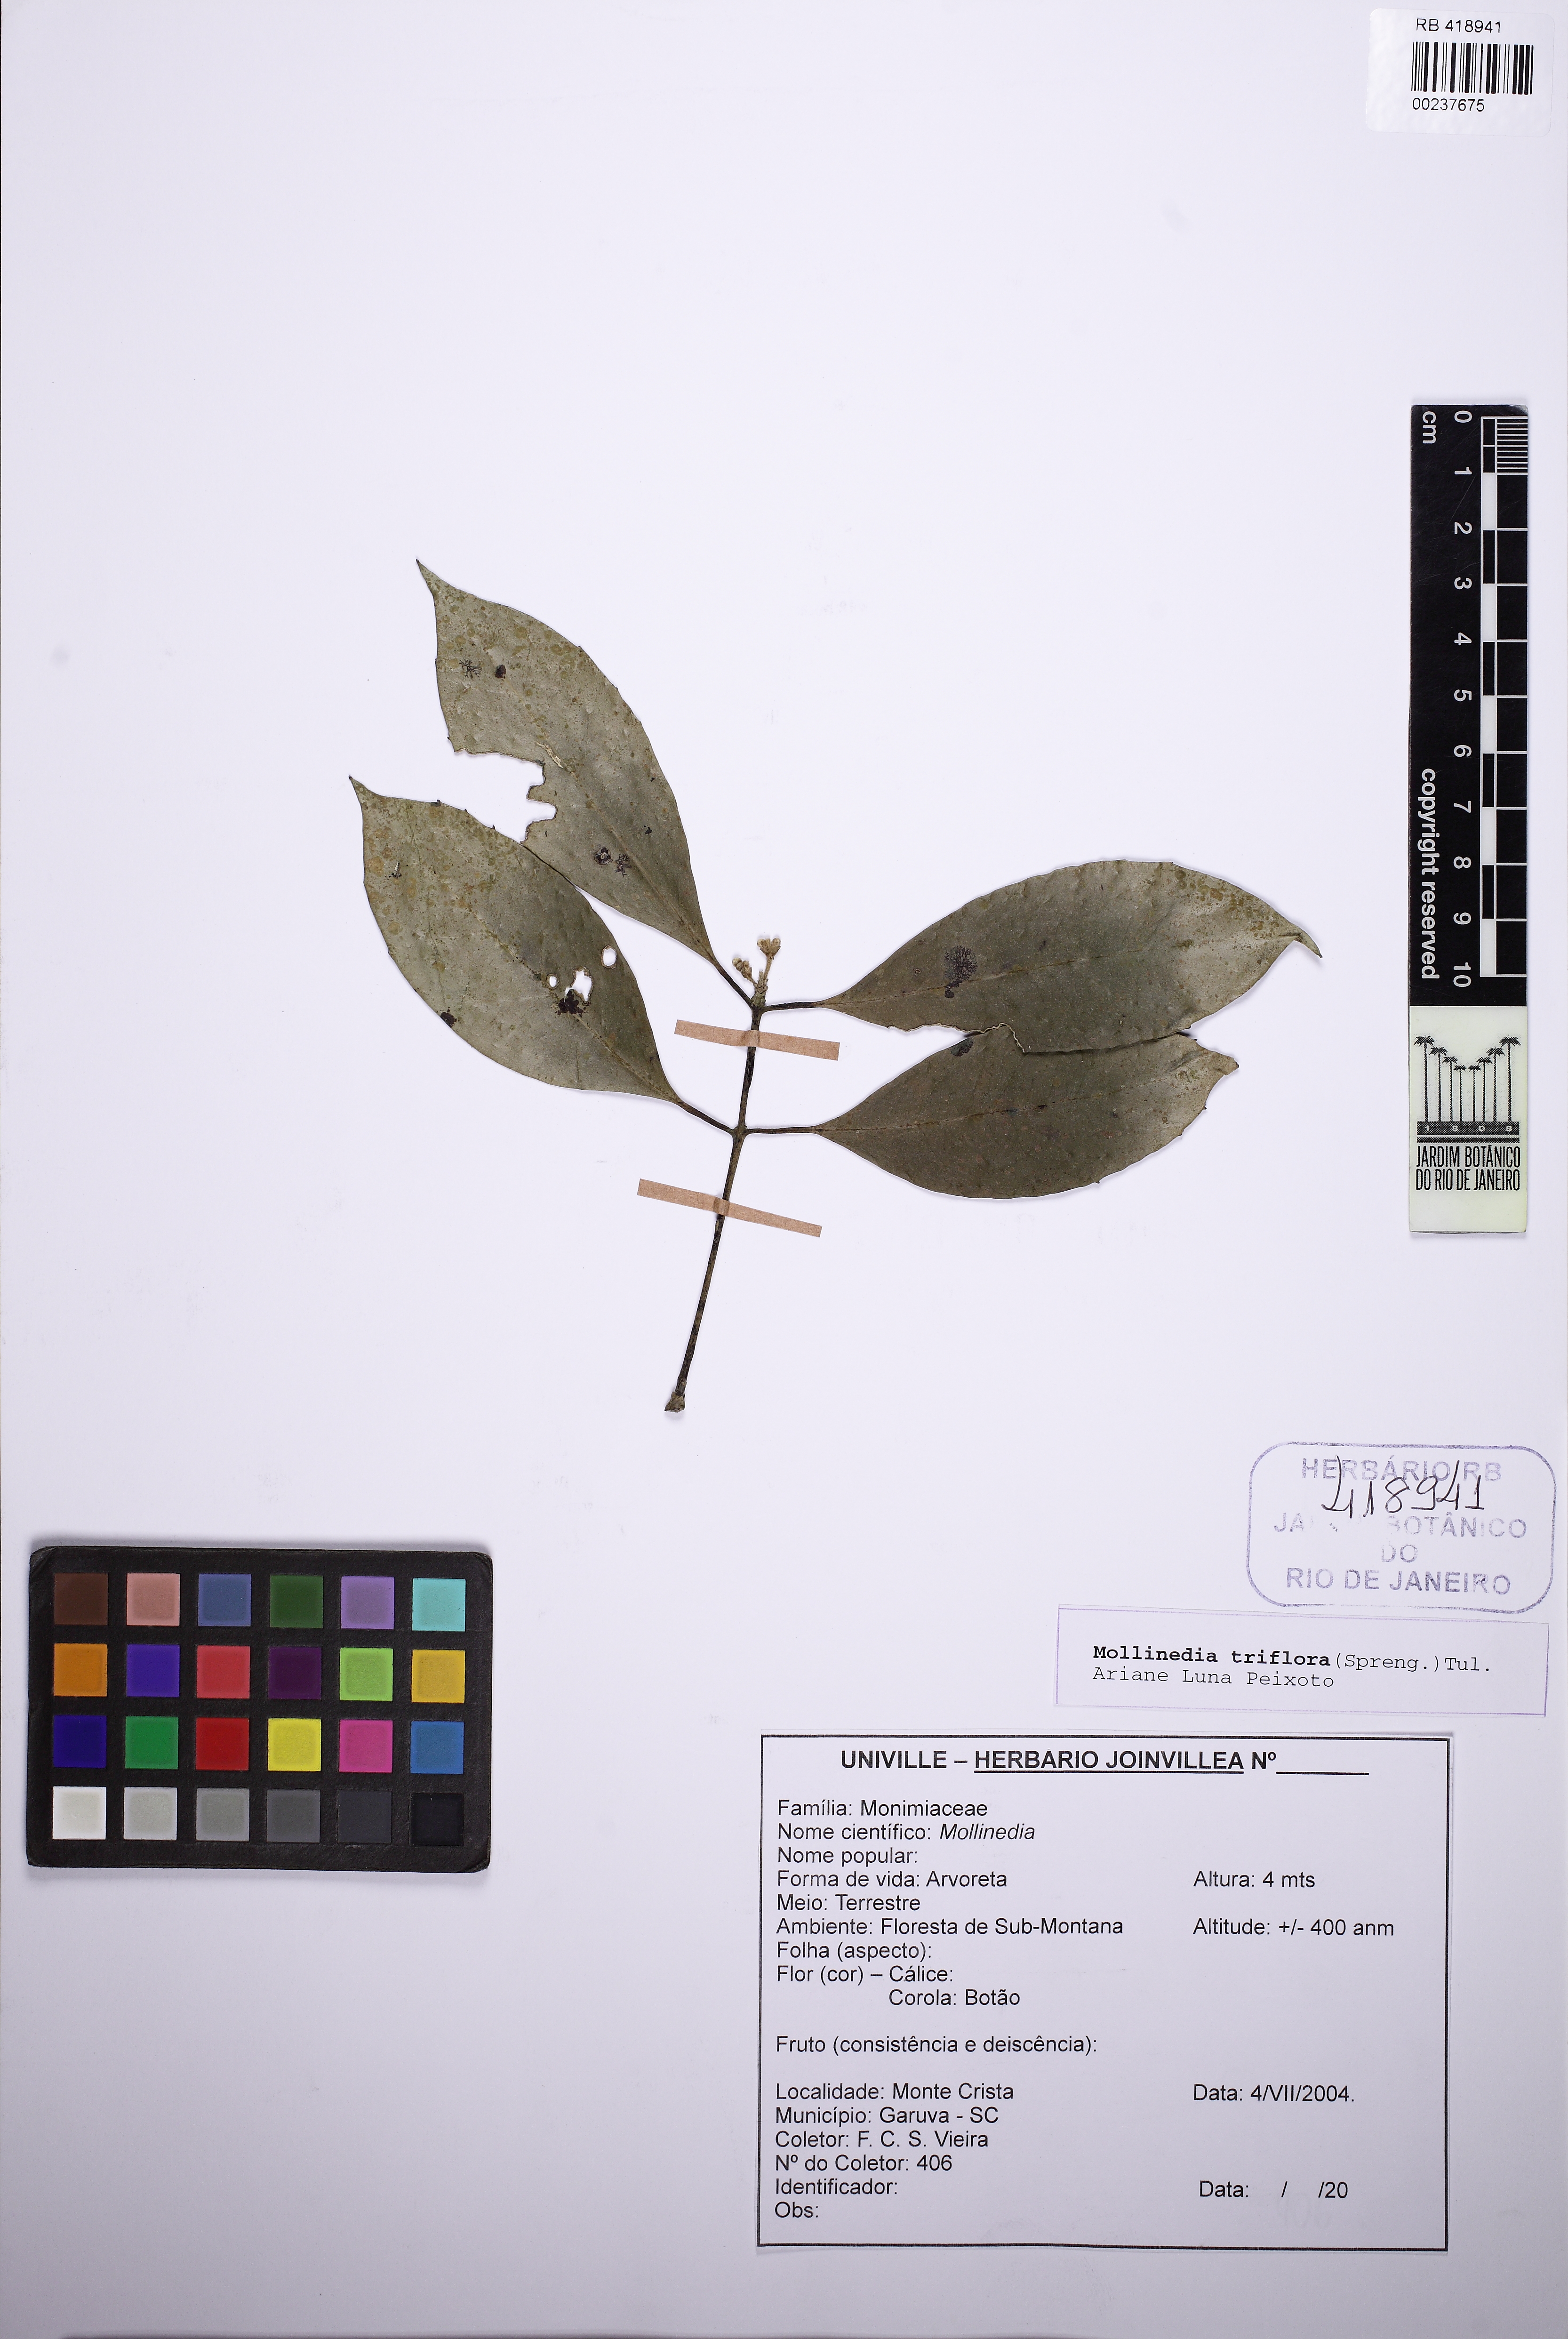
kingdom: Plantae
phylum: Tracheophyta
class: Magnoliopsida
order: Laurales
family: Monimiaceae
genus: Mollinedia
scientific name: Mollinedia triflora
